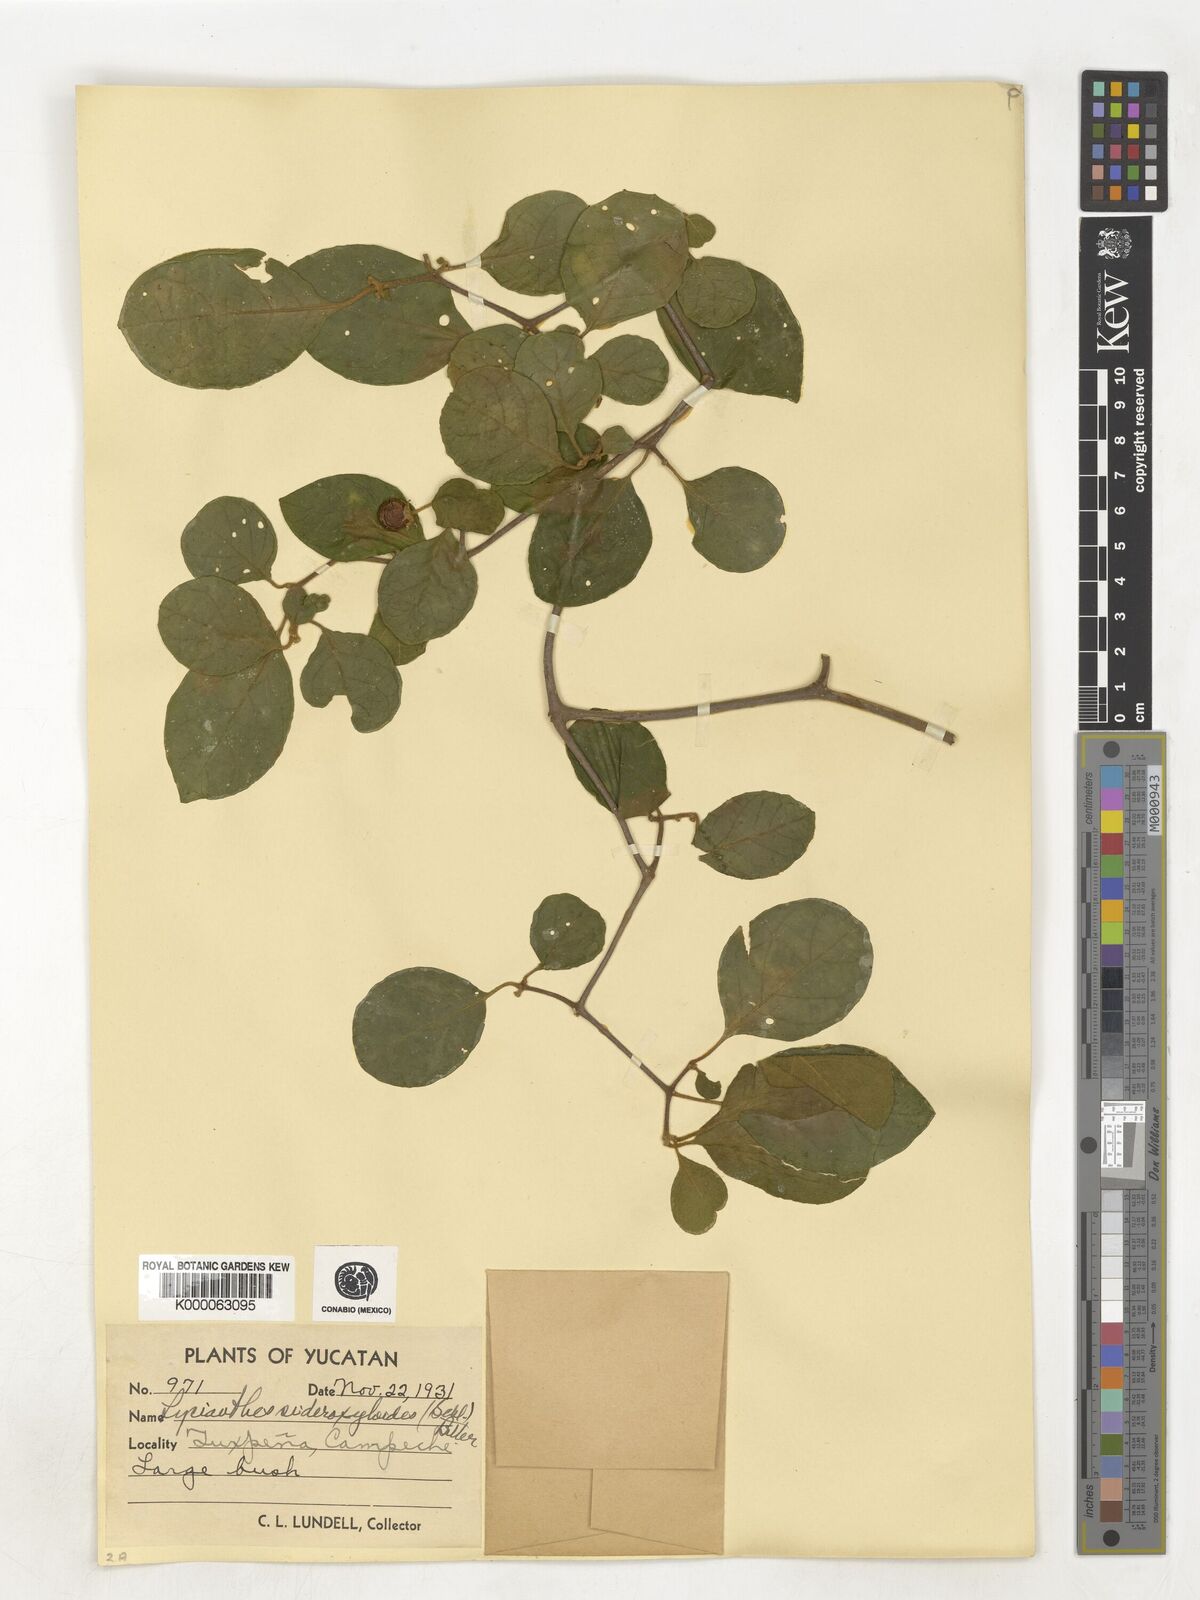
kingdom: Plantae
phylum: Tracheophyta
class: Magnoliopsida
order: Solanales
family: Solanaceae
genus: Lycianthes
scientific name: Lycianthes sideroxyloides
